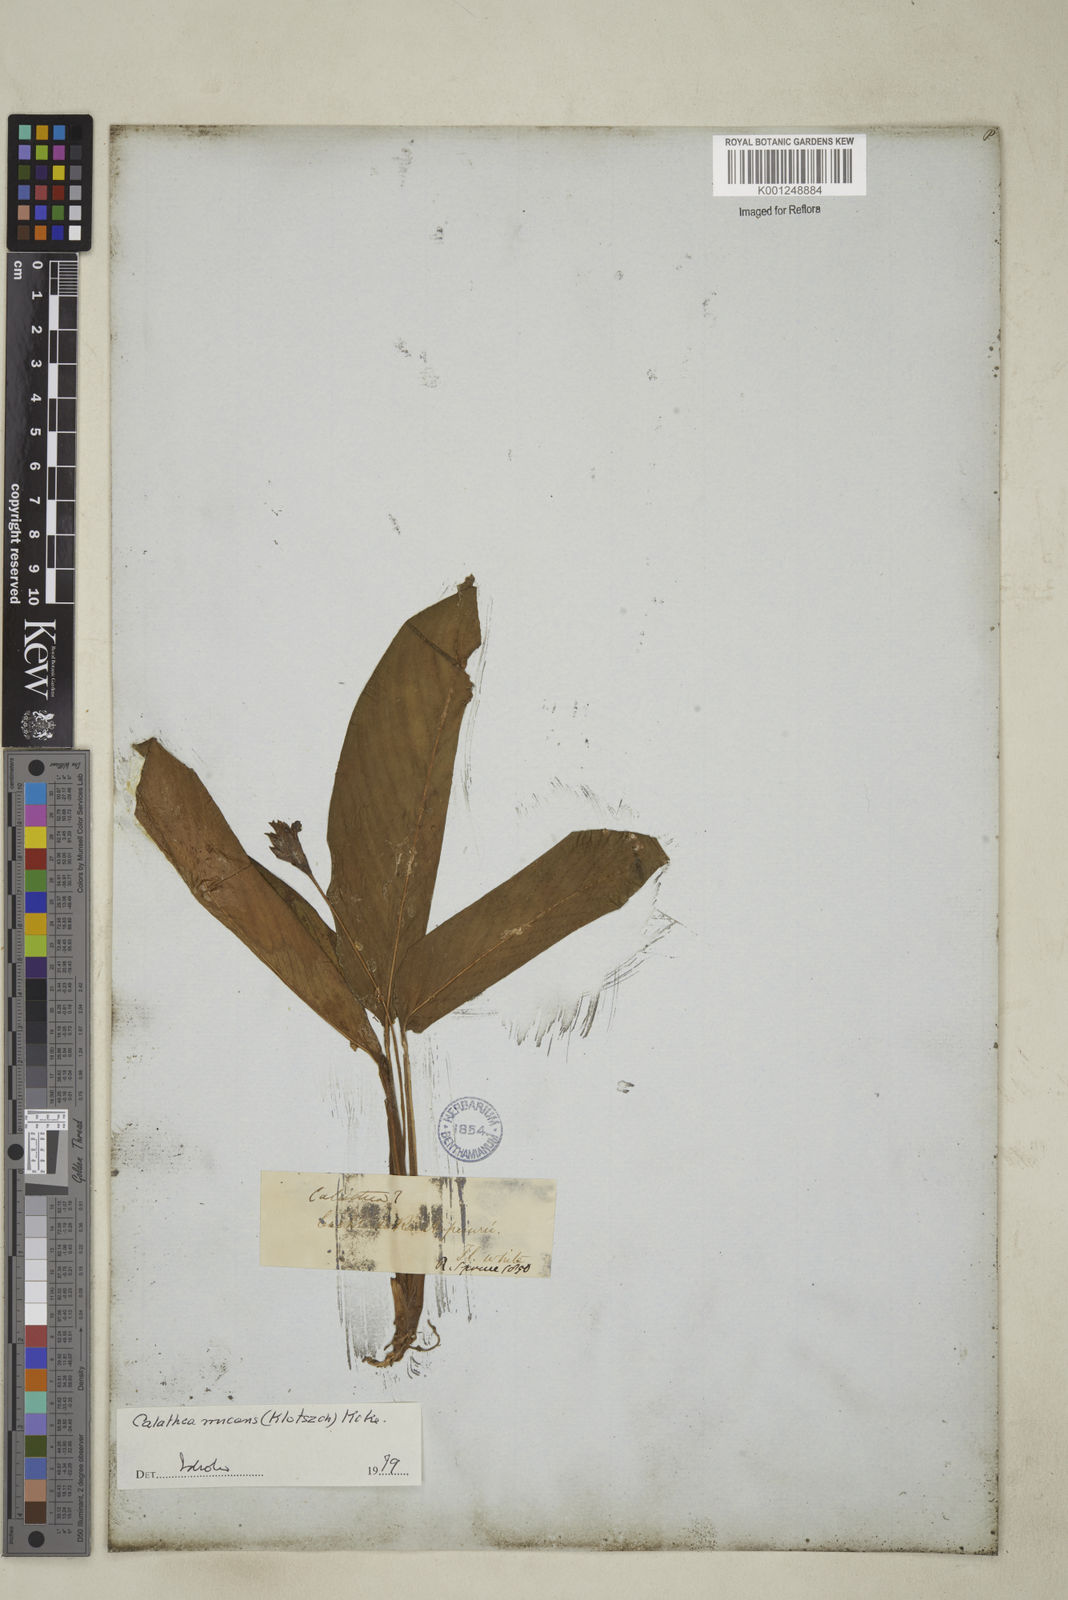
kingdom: Plantae
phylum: Tracheophyta
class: Liliopsida
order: Zingiberales
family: Marantaceae
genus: Goeppertia
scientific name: Goeppertia micans
